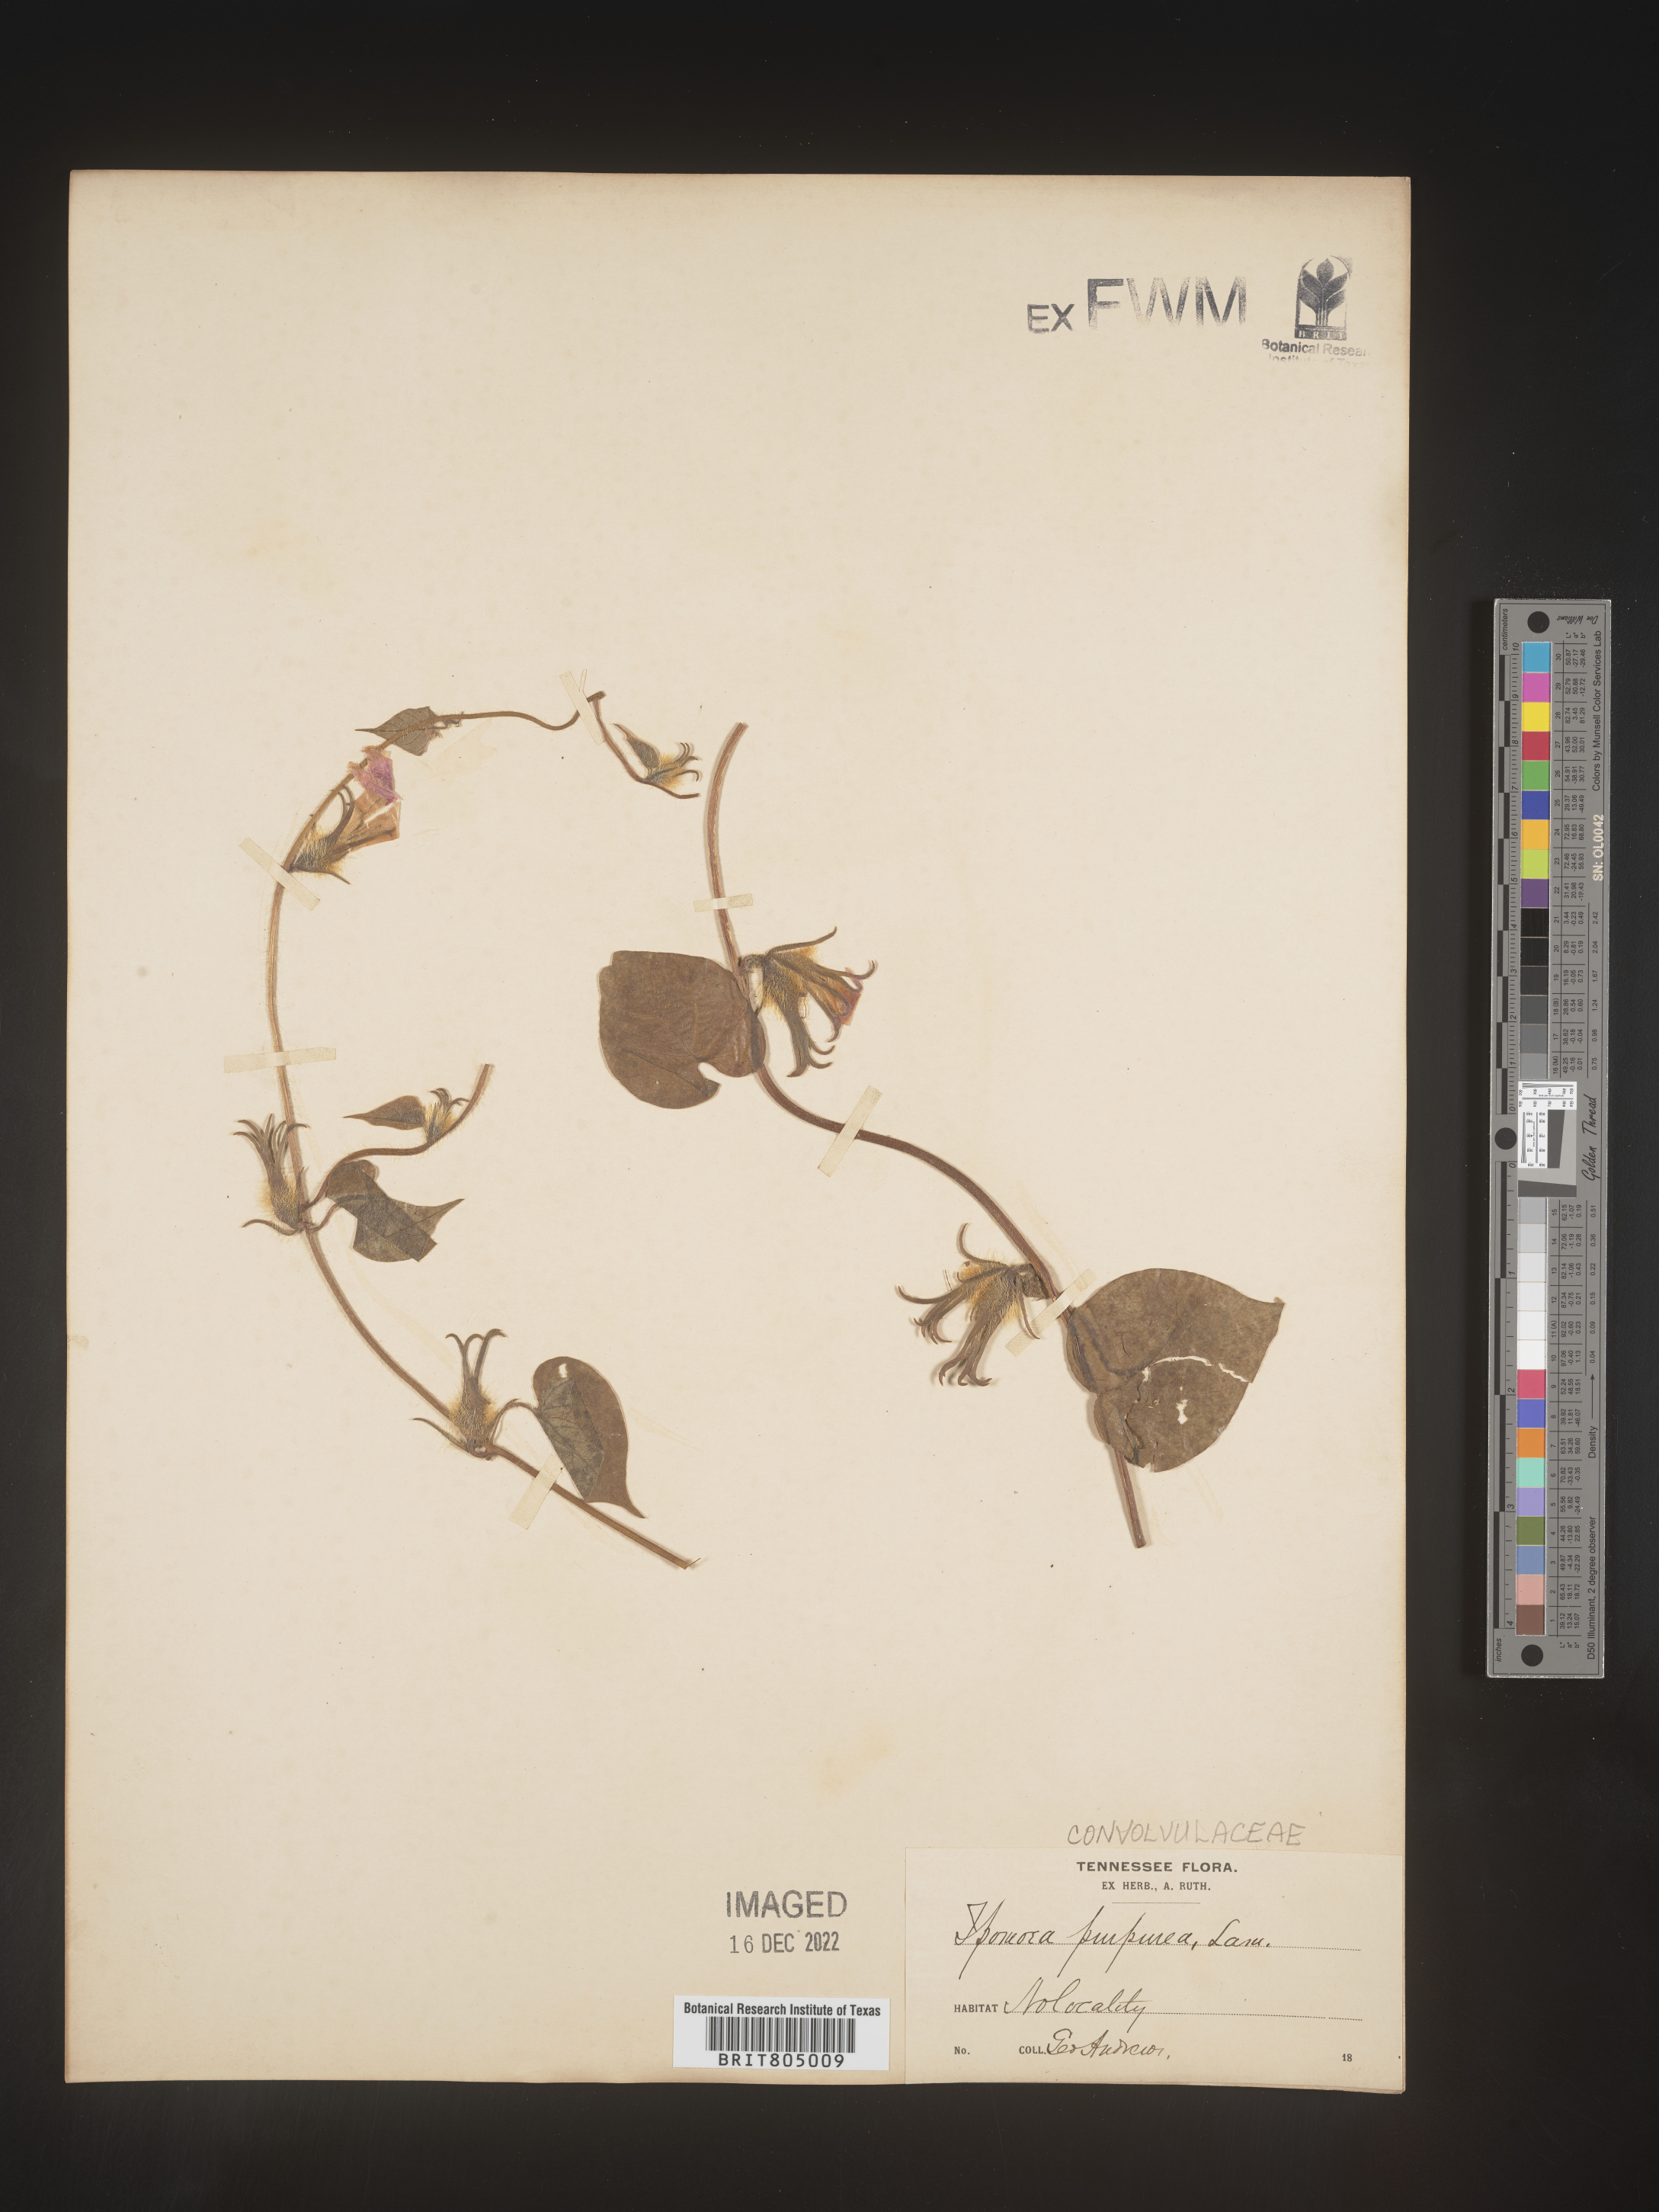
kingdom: Plantae
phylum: Tracheophyta
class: Magnoliopsida
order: Solanales
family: Convolvulaceae
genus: Ipomoea
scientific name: Ipomoea purpurea
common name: Common morning-glory
